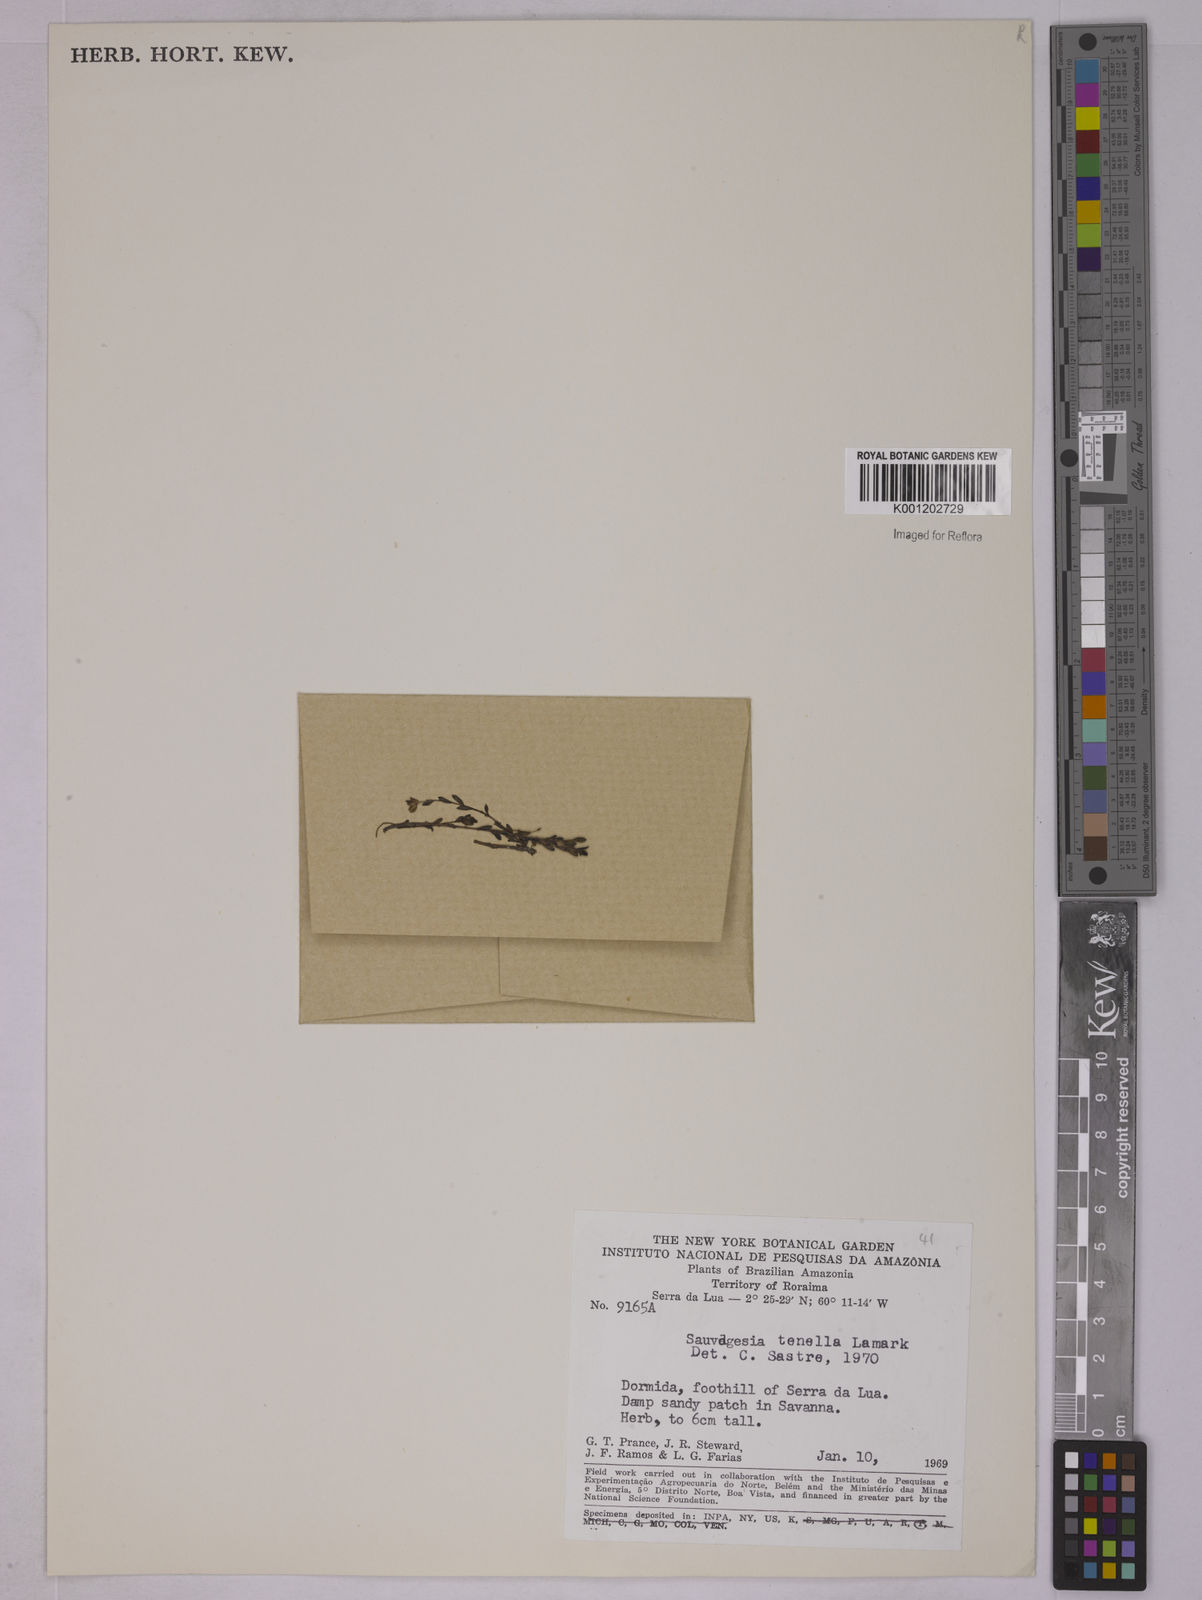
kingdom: Plantae
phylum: Tracheophyta
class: Magnoliopsida
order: Malpighiales
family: Ochnaceae
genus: Sauvagesia
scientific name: Sauvagesia tenella
